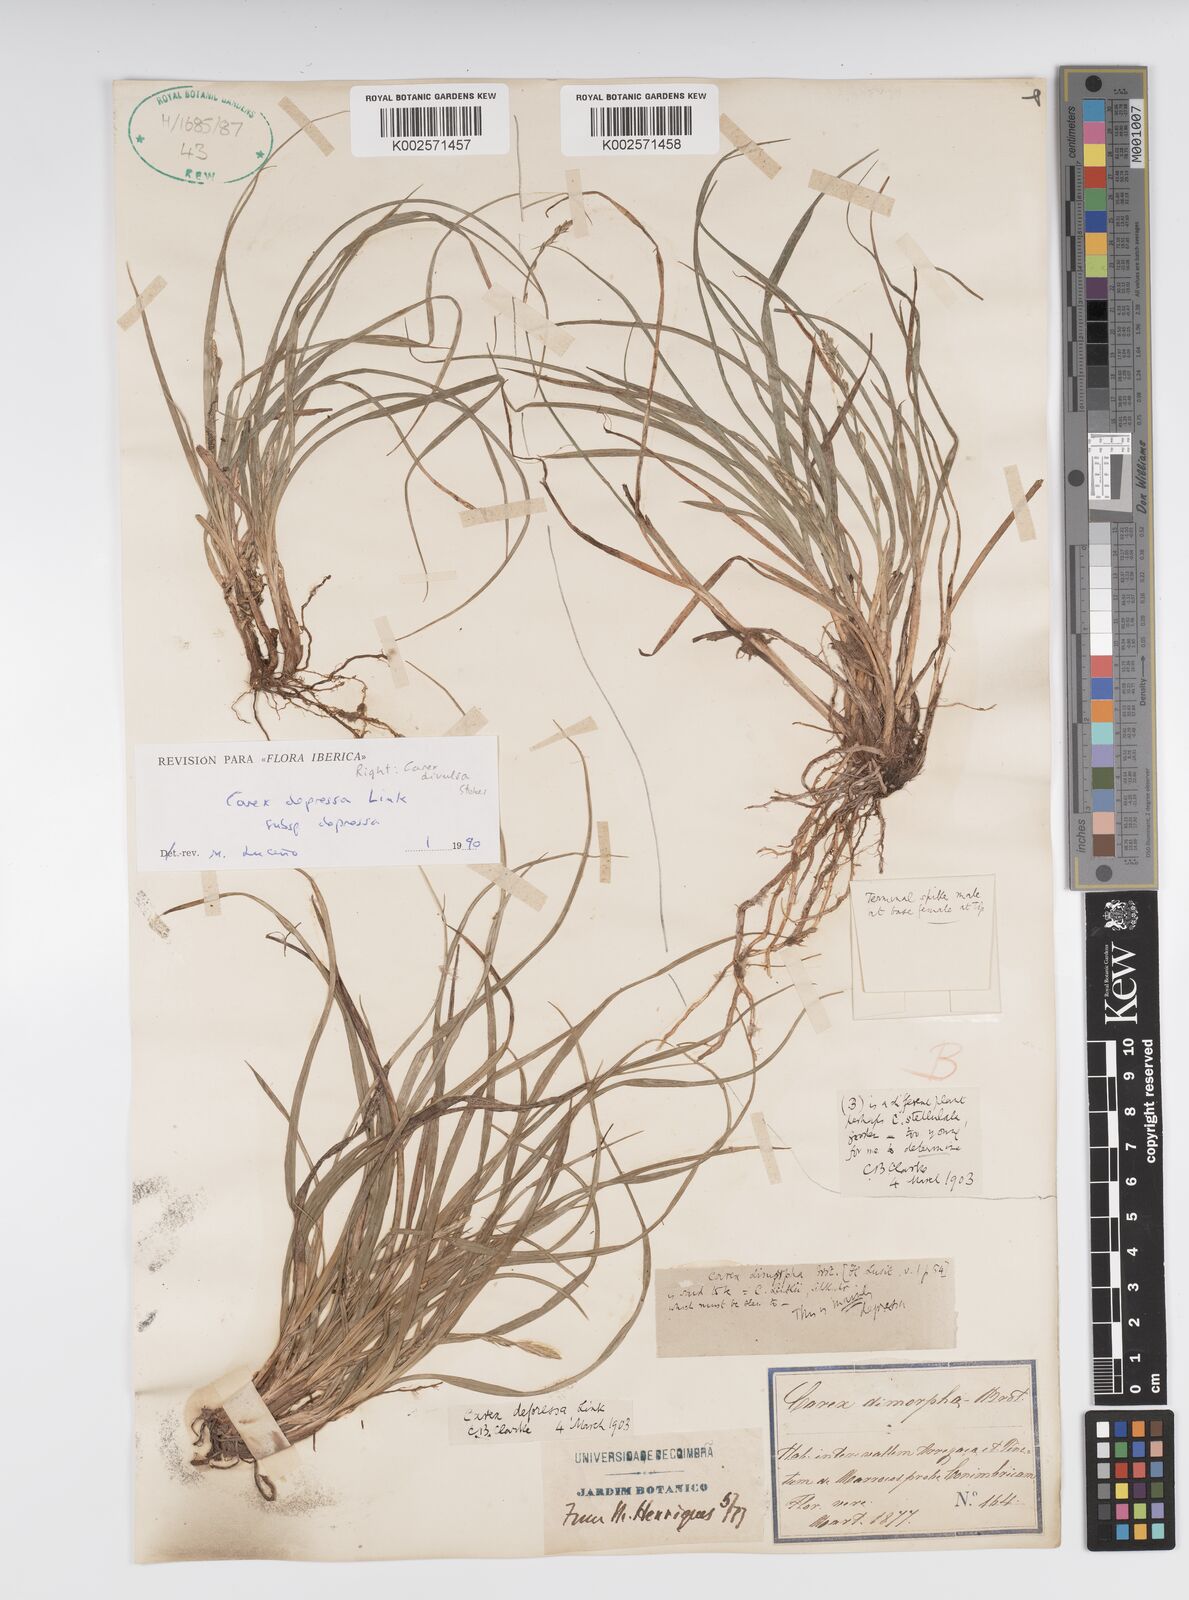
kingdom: Plantae
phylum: Tracheophyta
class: Liliopsida
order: Poales
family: Cyperaceae
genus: Carex
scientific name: Carex depressa
